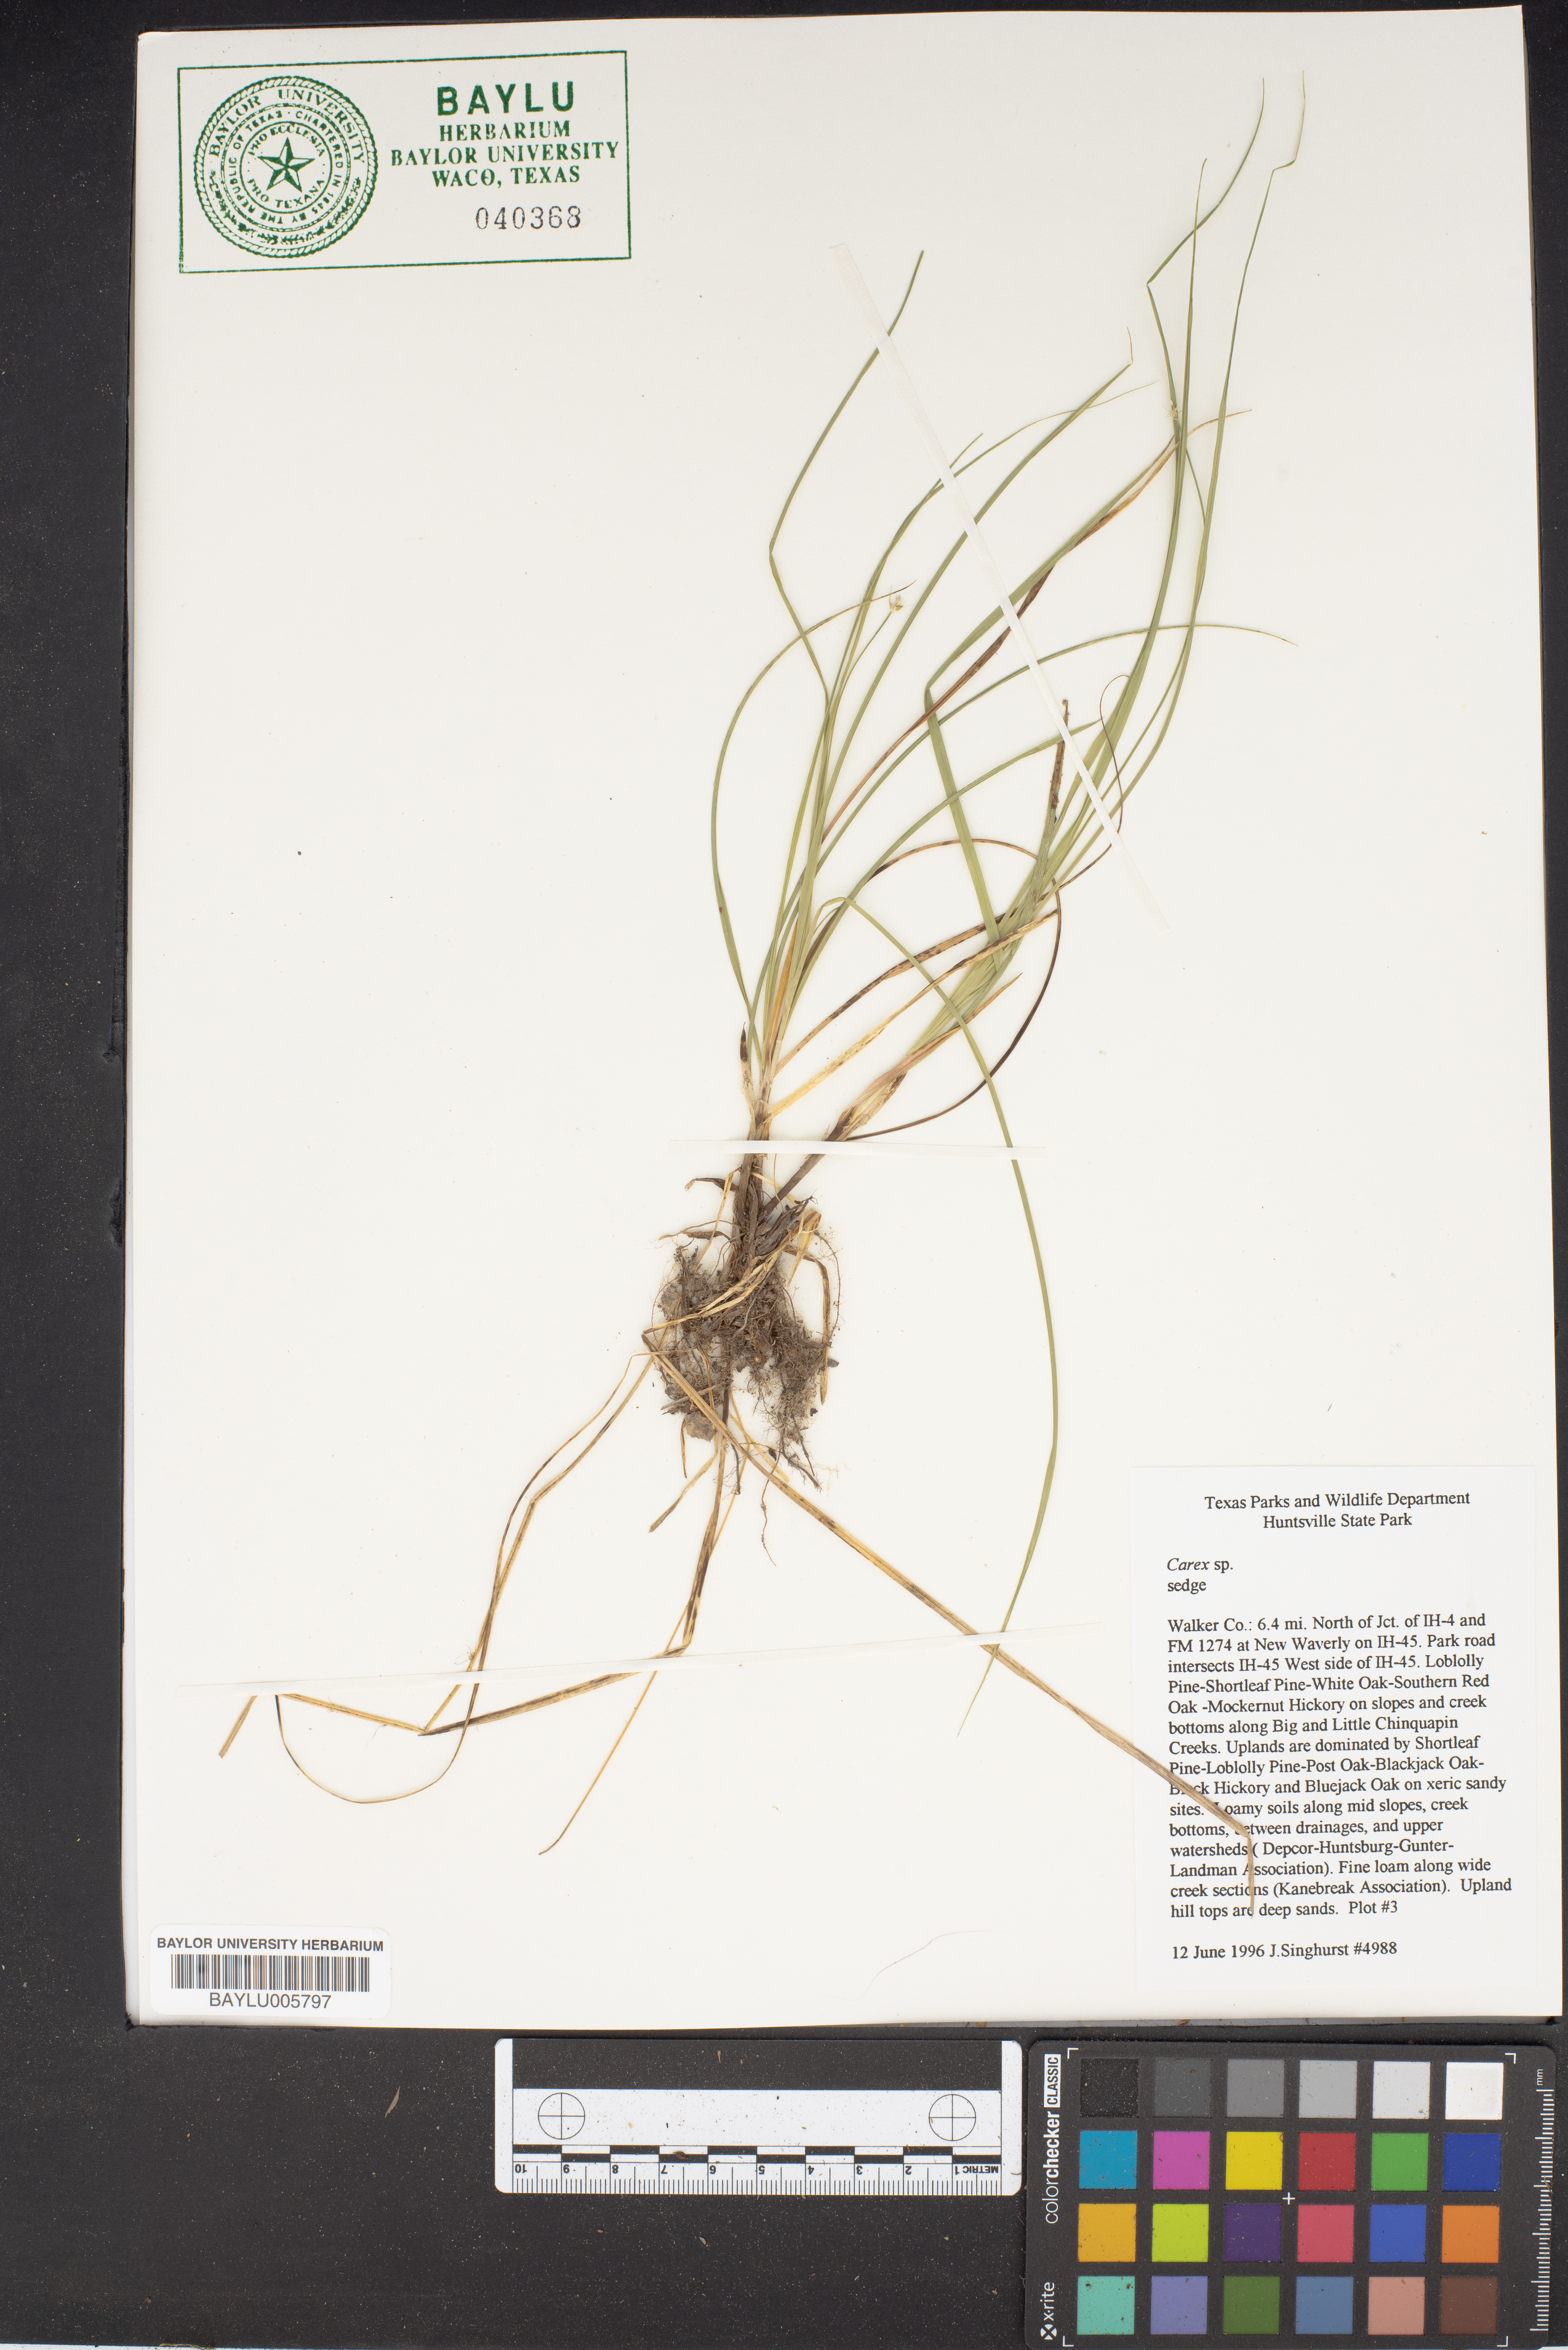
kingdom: Plantae
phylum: Tracheophyta
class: Liliopsida
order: Poales
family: Cyperaceae
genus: Carex
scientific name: Carex
